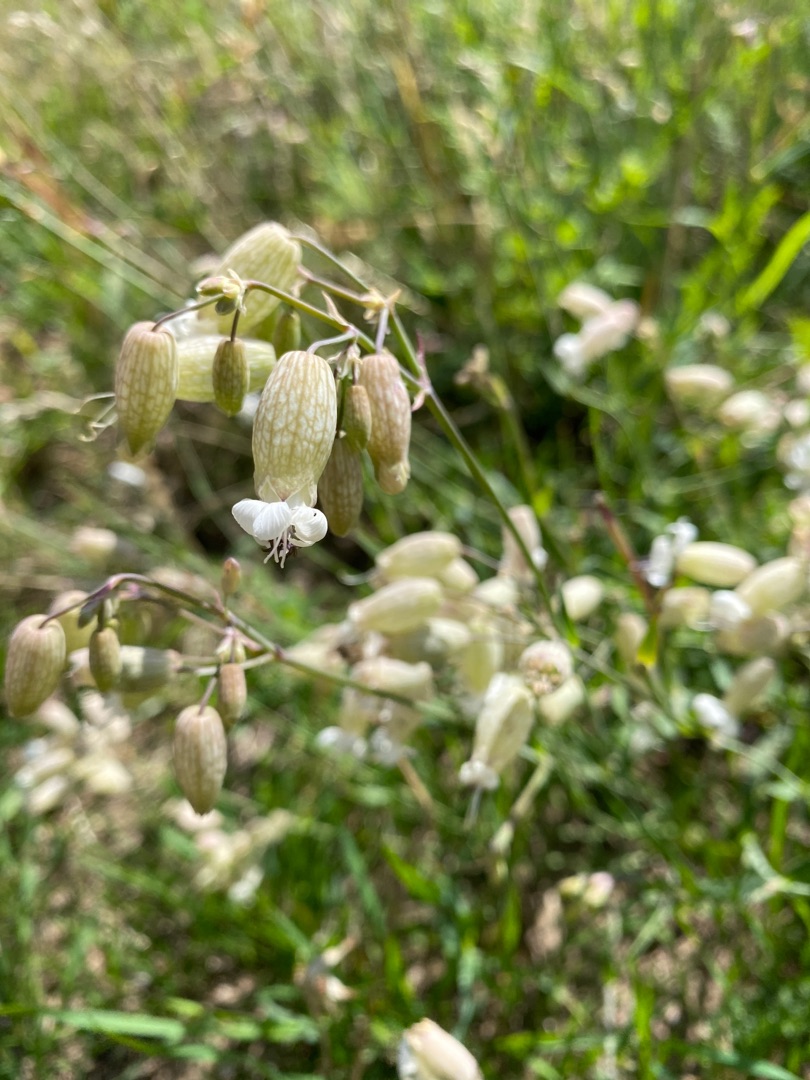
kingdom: Plantae
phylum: Tracheophyta
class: Magnoliopsida
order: Caryophyllales
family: Caryophyllaceae
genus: Silene
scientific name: Silene vulgaris
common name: Blæresmælde
